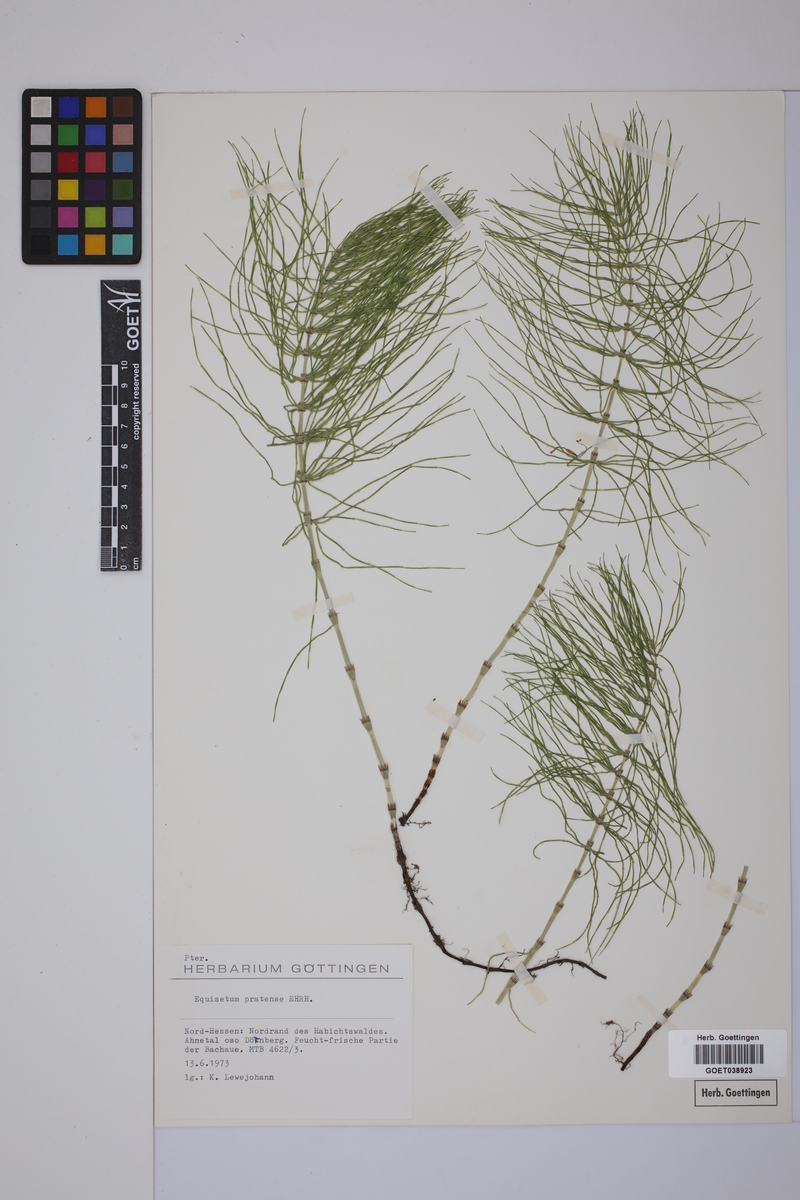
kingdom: Plantae
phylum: Tracheophyta
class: Polypodiopsida
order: Equisetales
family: Equisetaceae
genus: Equisetum
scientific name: Equisetum pratense
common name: Meadow horsetail
